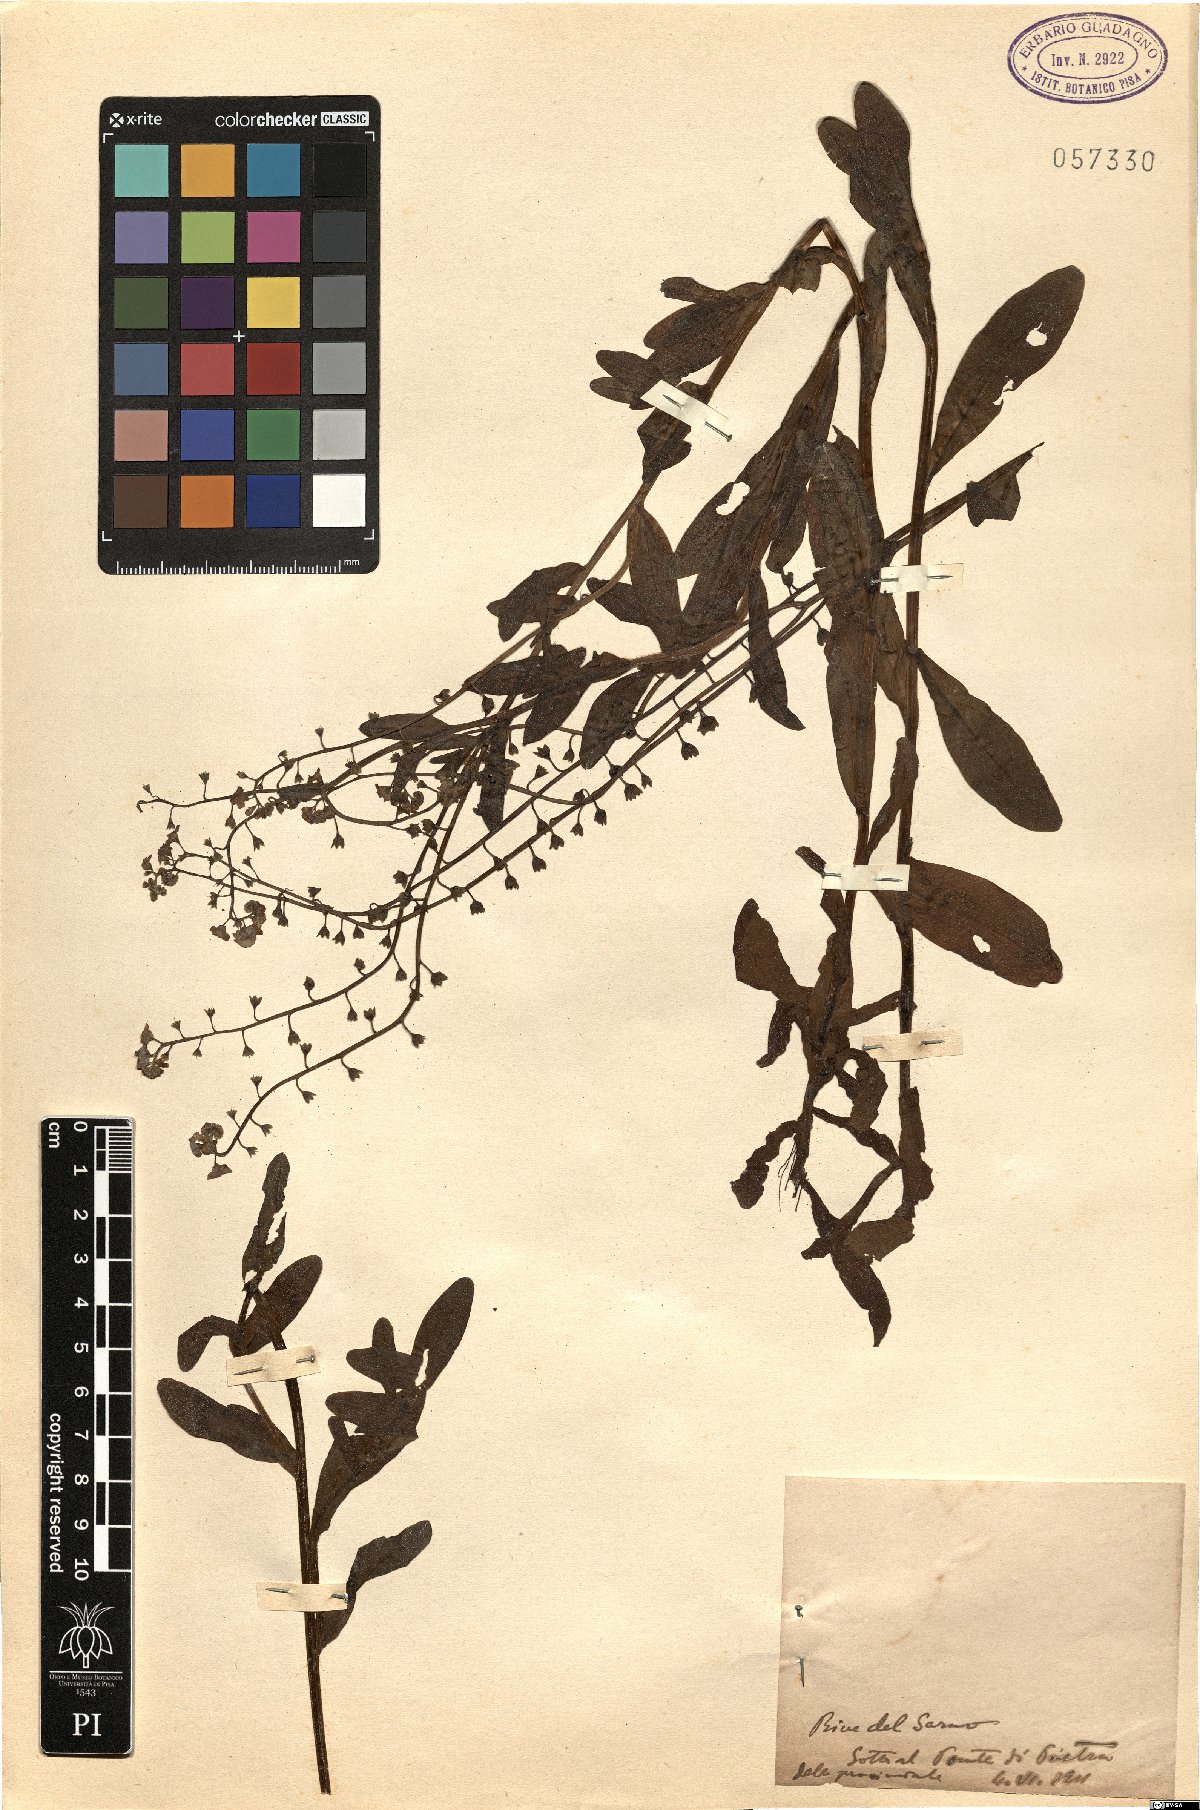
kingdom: Plantae
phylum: Tracheophyta
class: Magnoliopsida
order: Boraginales
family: Boraginaceae
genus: Myosotis
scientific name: Myosotis
